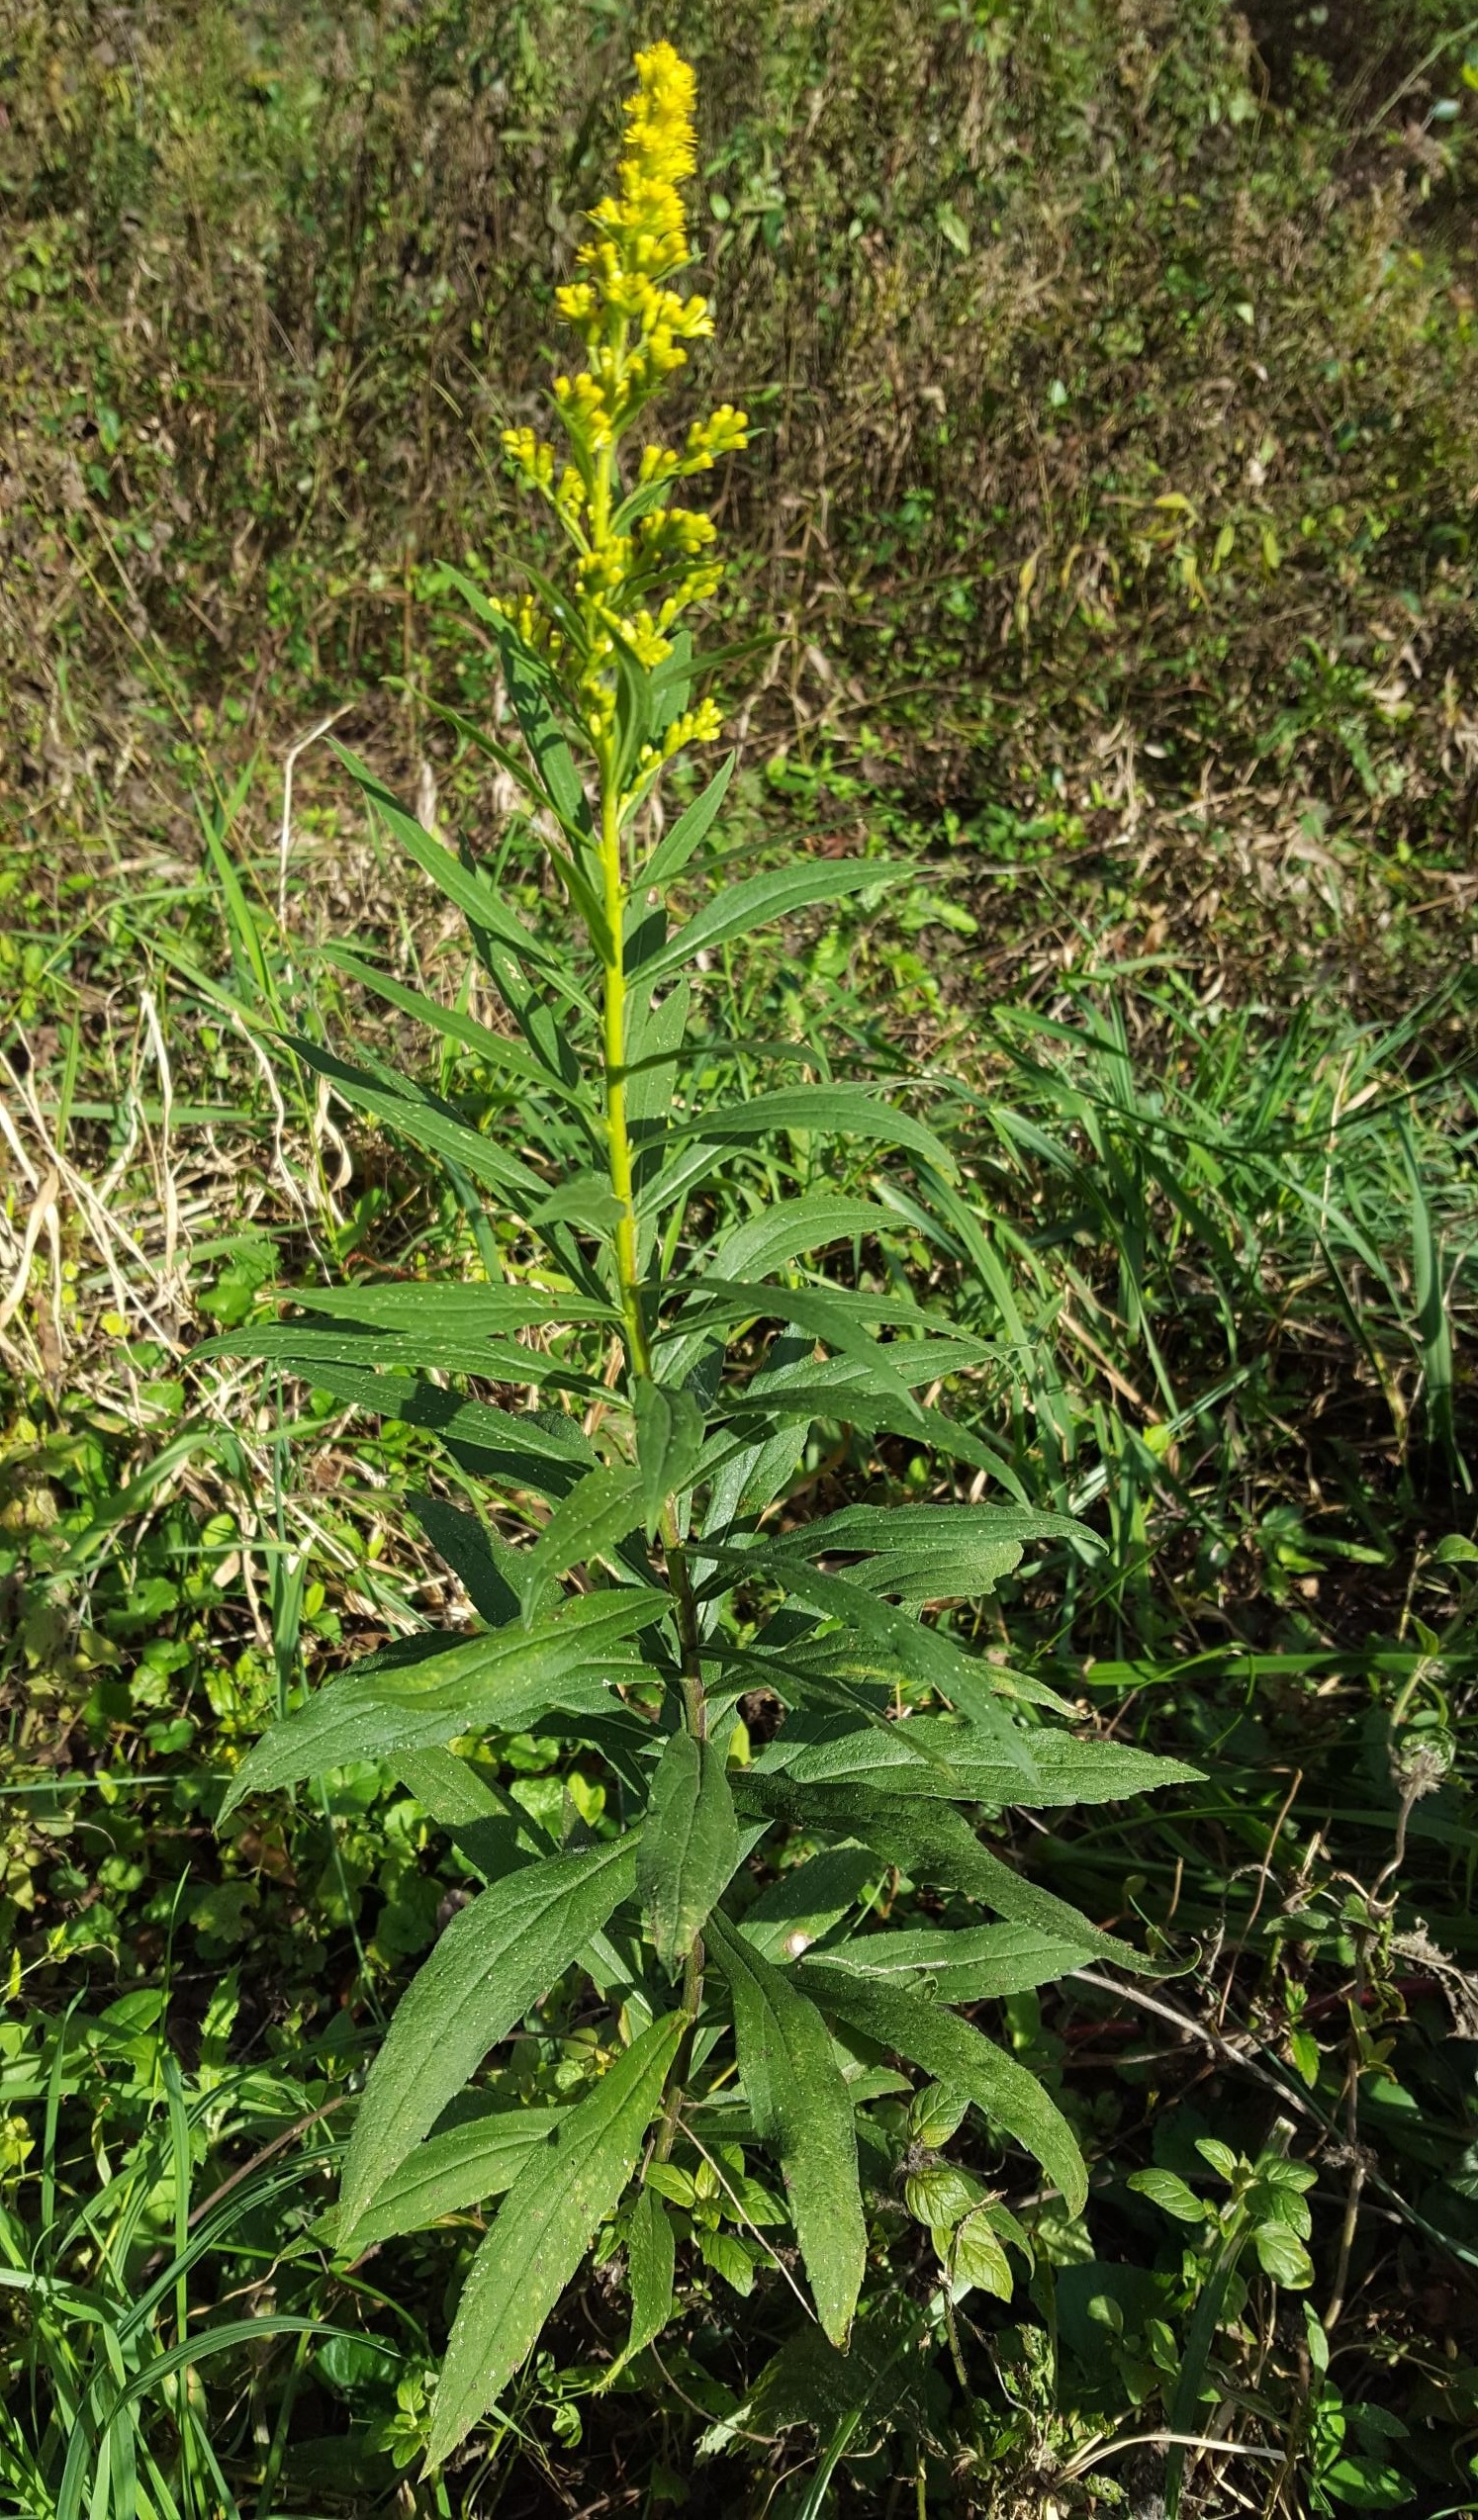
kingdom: Plantae
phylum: Tracheophyta
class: Magnoliopsida
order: Asterales
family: Asteraceae
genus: Solidago
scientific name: Solidago altissima
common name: Late goldenrod
